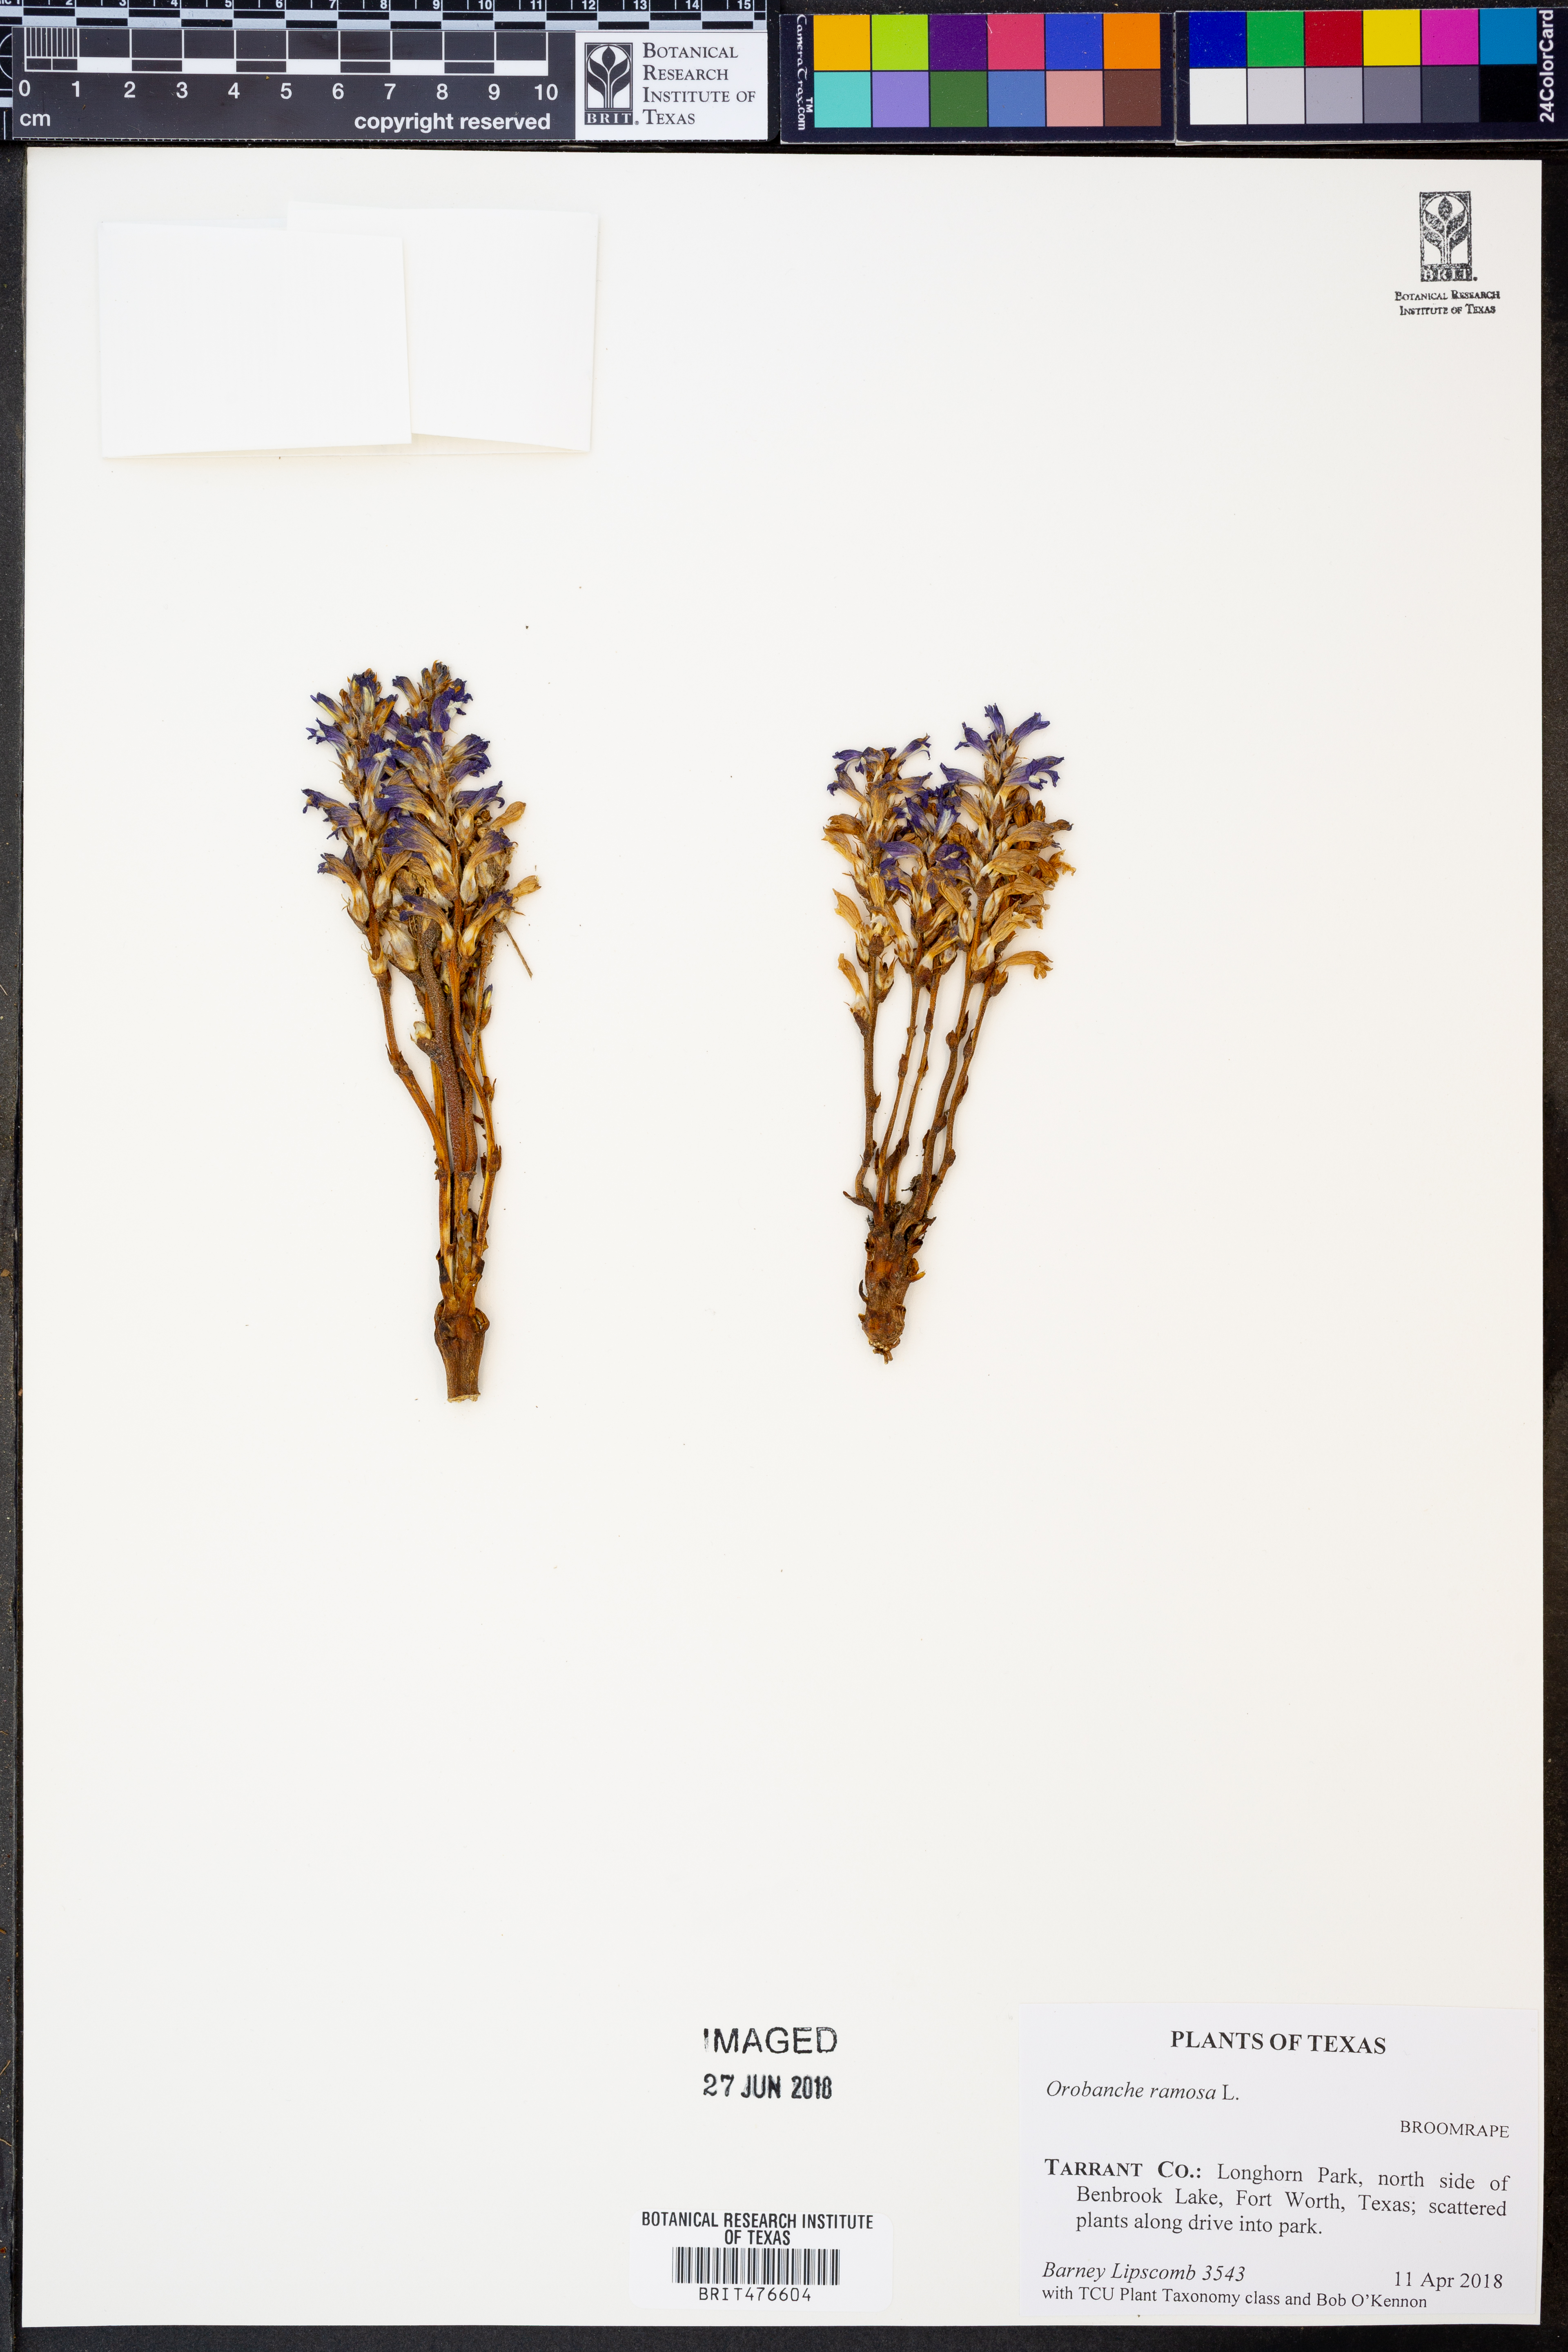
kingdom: Plantae
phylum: Tracheophyta
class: Magnoliopsida
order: Lamiales
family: Orobanchaceae
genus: Phelipanche
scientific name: Phelipanche ramosa
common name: Branched broomrape
